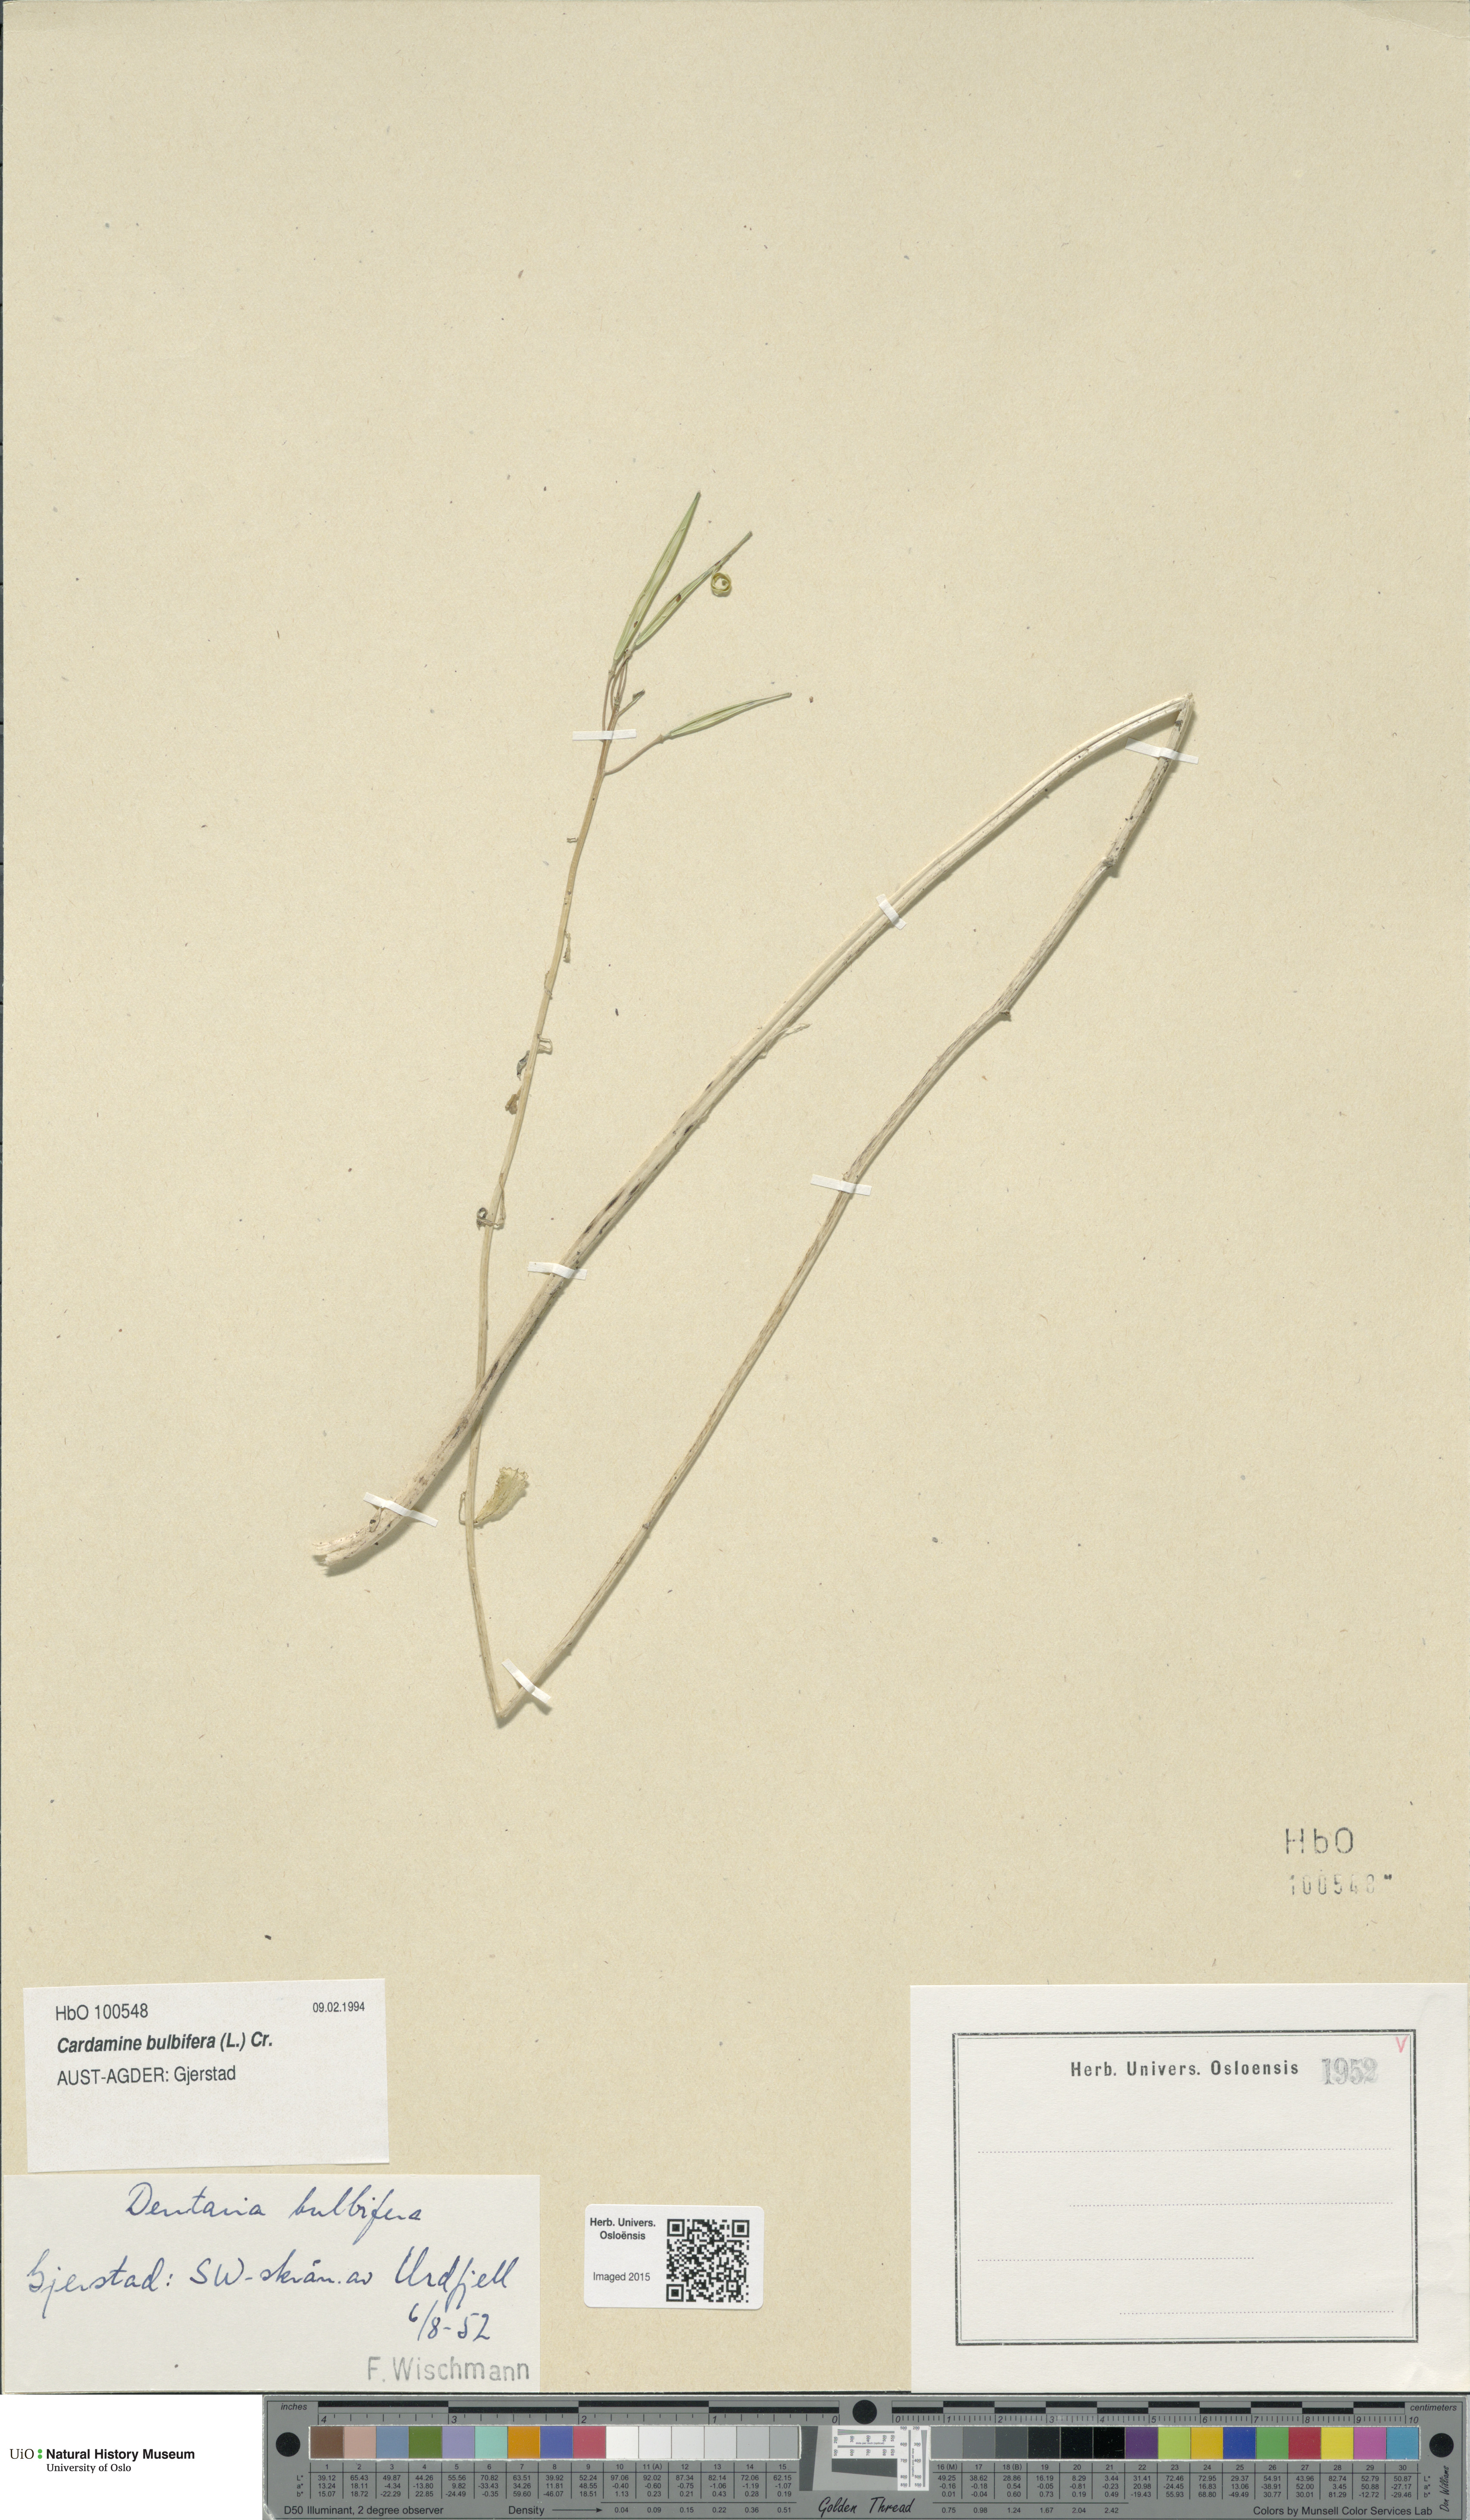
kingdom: Plantae
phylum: Tracheophyta
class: Magnoliopsida
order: Brassicales
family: Brassicaceae
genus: Cardamine
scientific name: Cardamine bulbifera
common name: Coralroot bittercress
